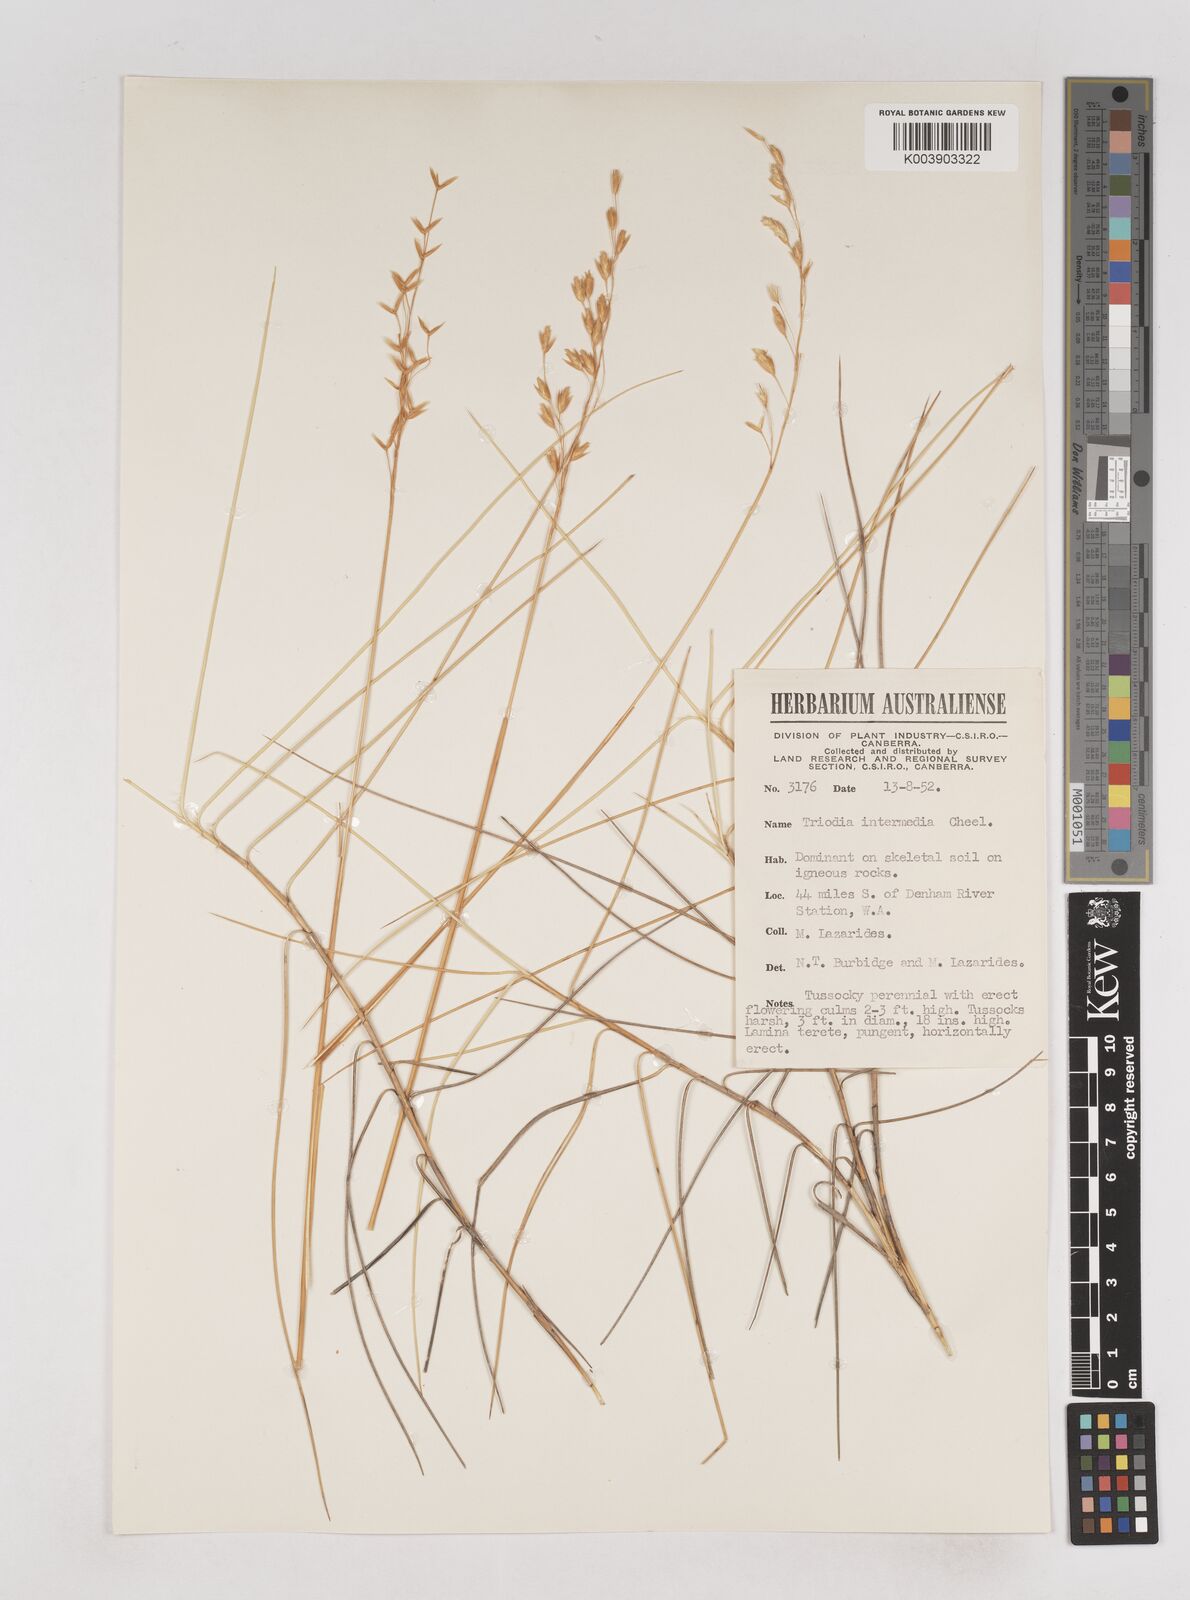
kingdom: Plantae
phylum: Tracheophyta
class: Liliopsida
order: Poales
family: Poaceae
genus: Triodia
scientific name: Triodia intermedia
